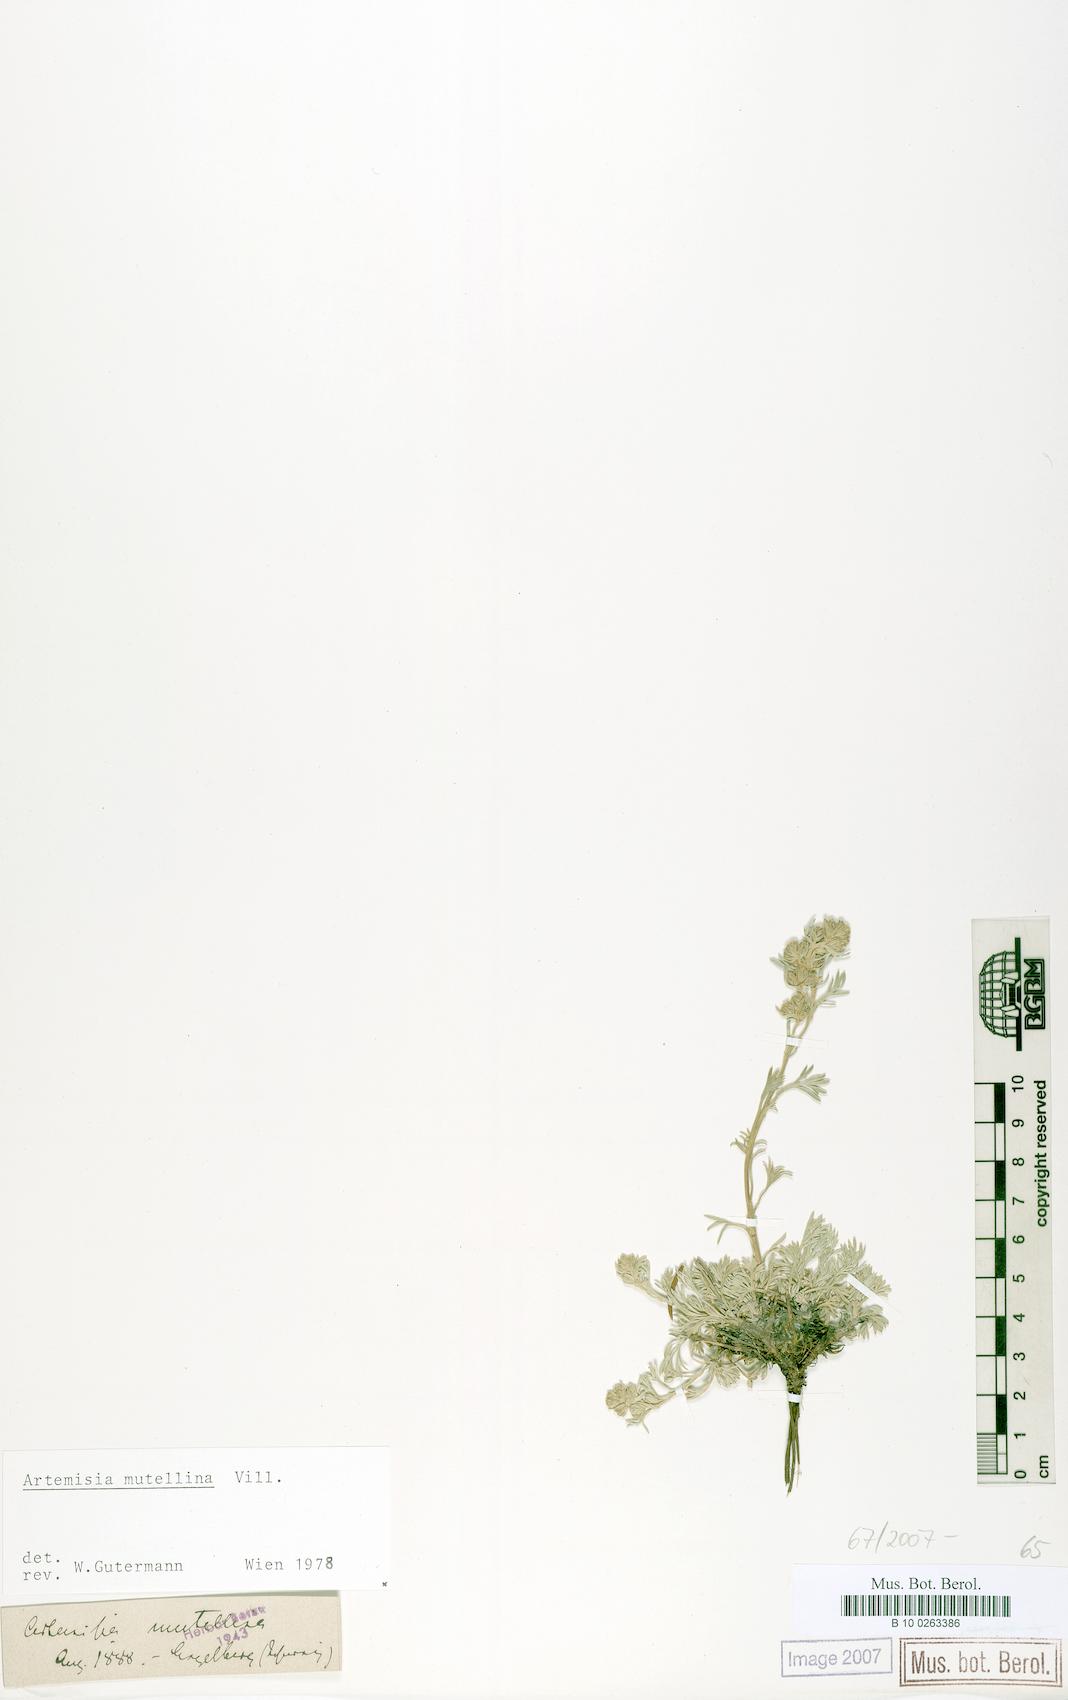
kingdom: Plantae
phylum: Tracheophyta
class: Magnoliopsida
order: Asterales
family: Asteraceae
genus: Artemisia
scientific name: Artemisia mutellina
